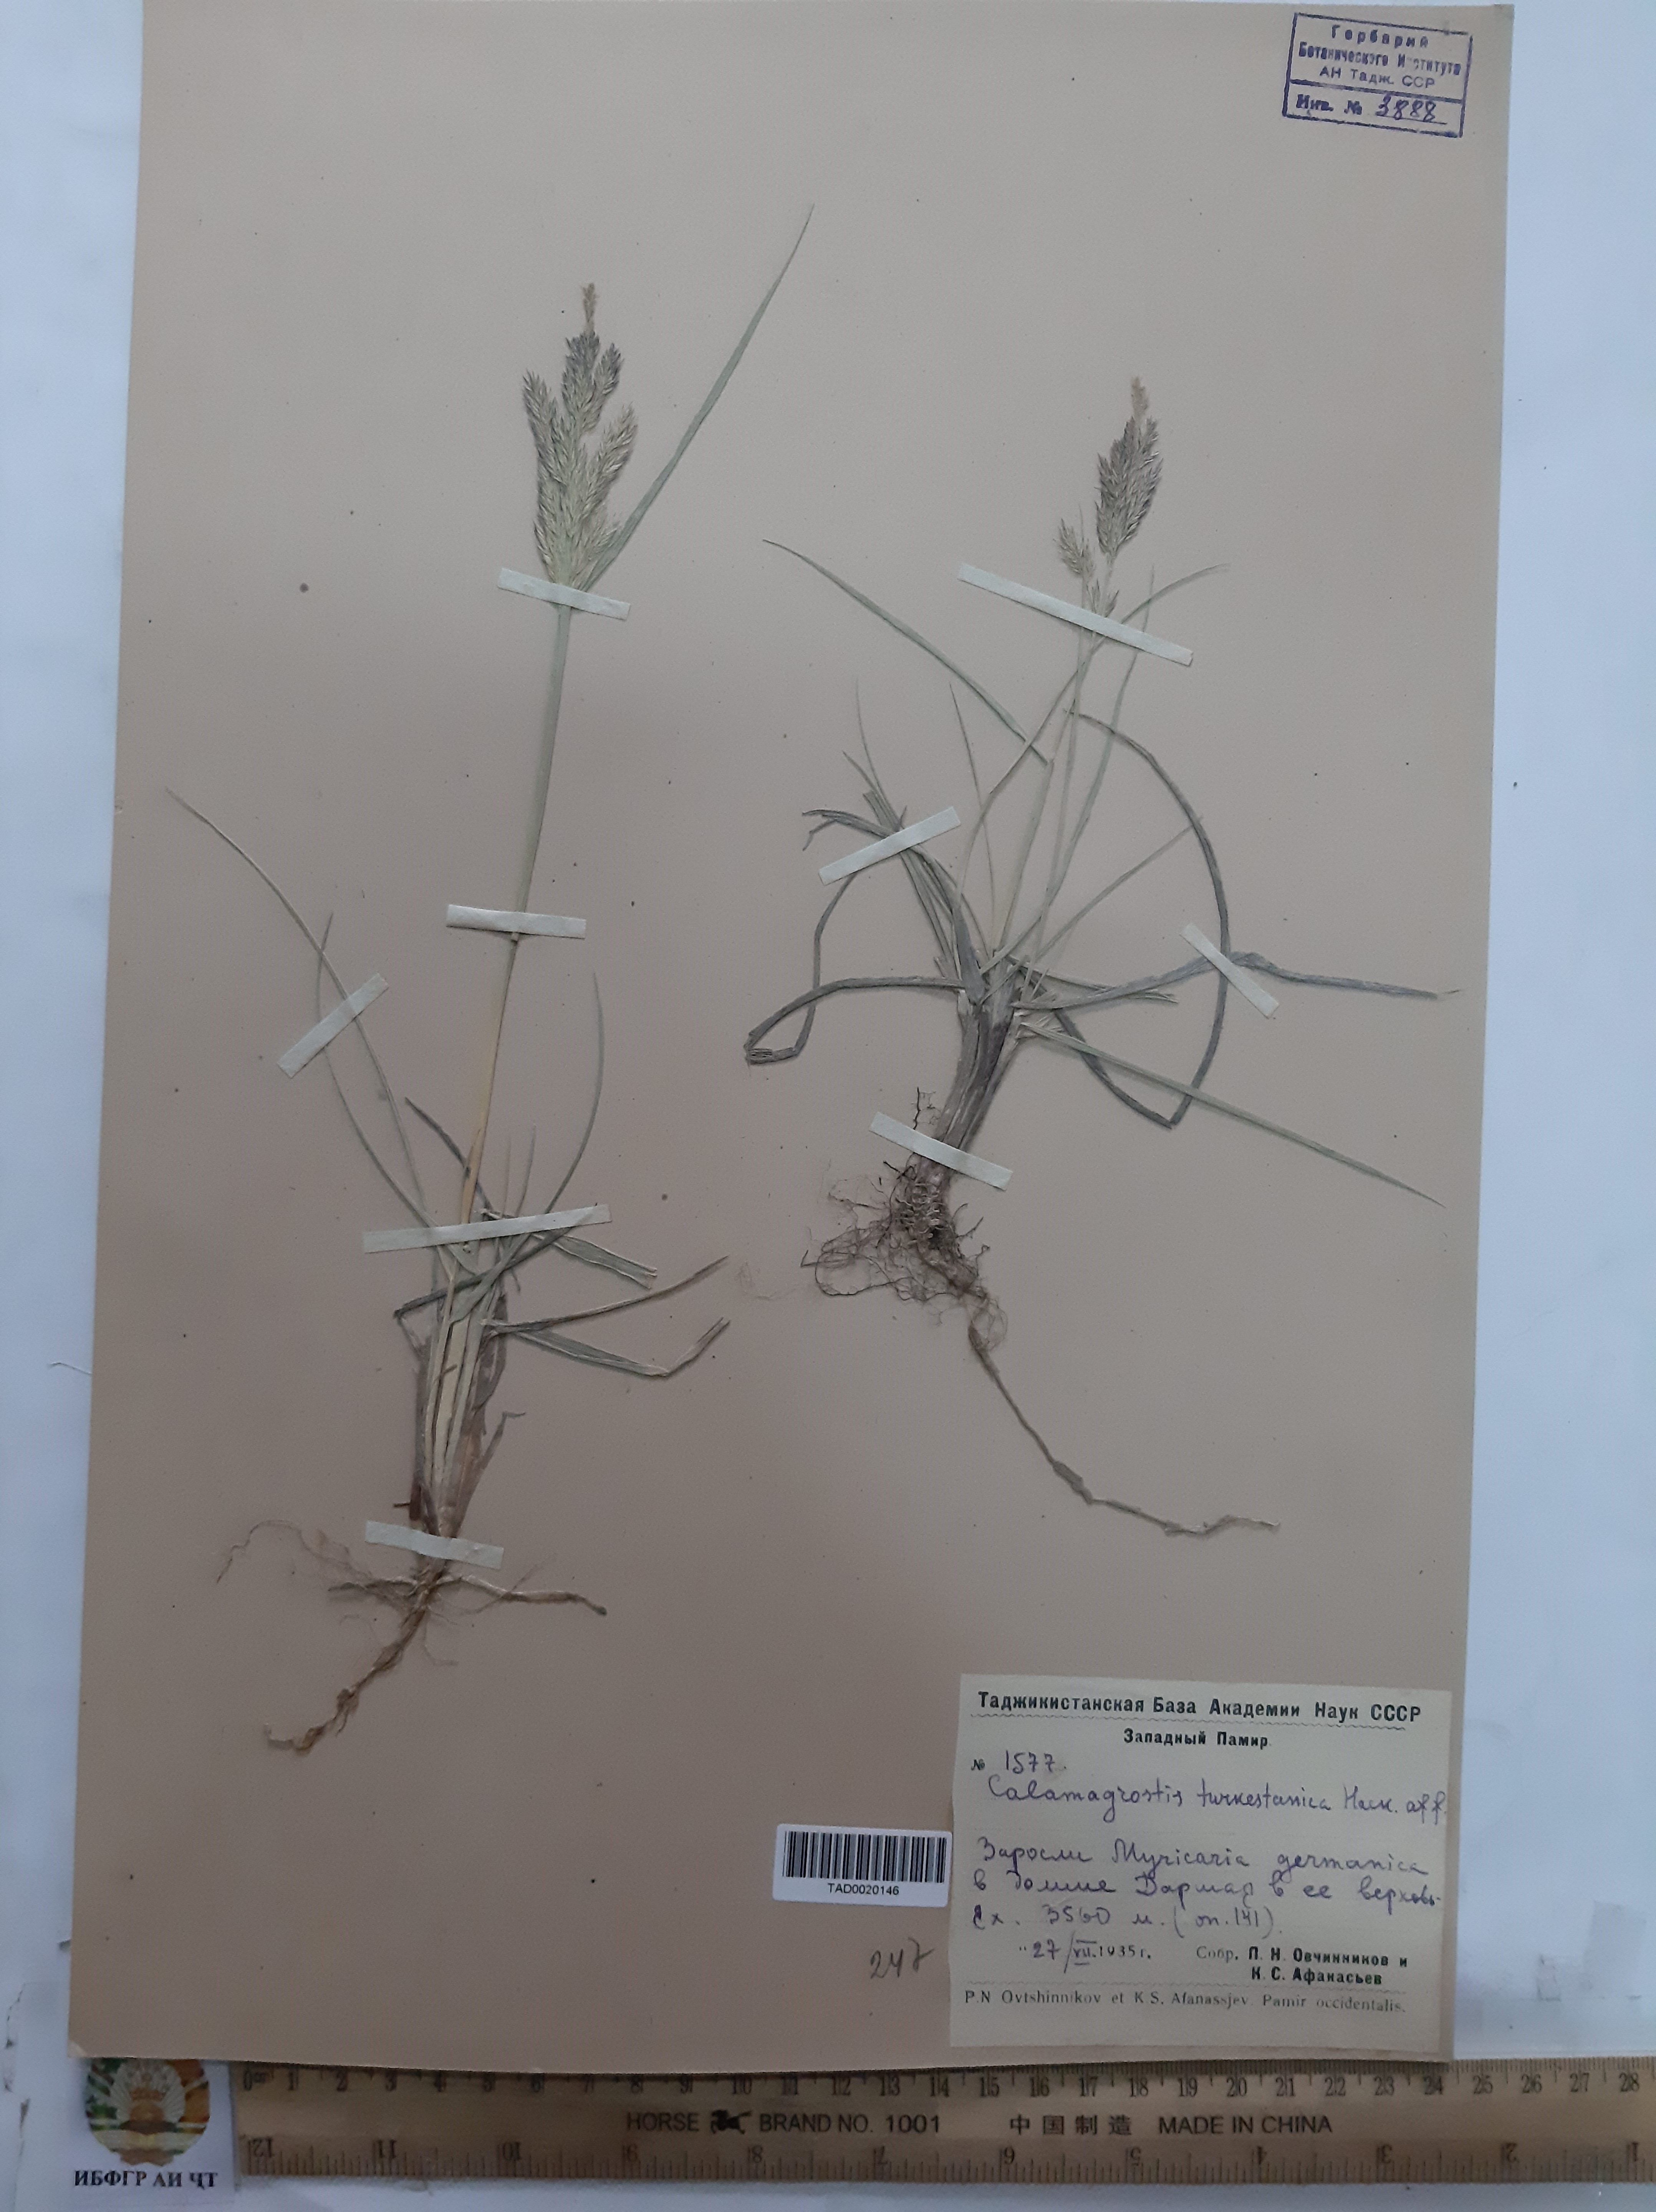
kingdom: Plantae
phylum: Tracheophyta
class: Liliopsida
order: Poales
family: Poaceae
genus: Calamagrostis
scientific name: Calamagrostis turkestanica
